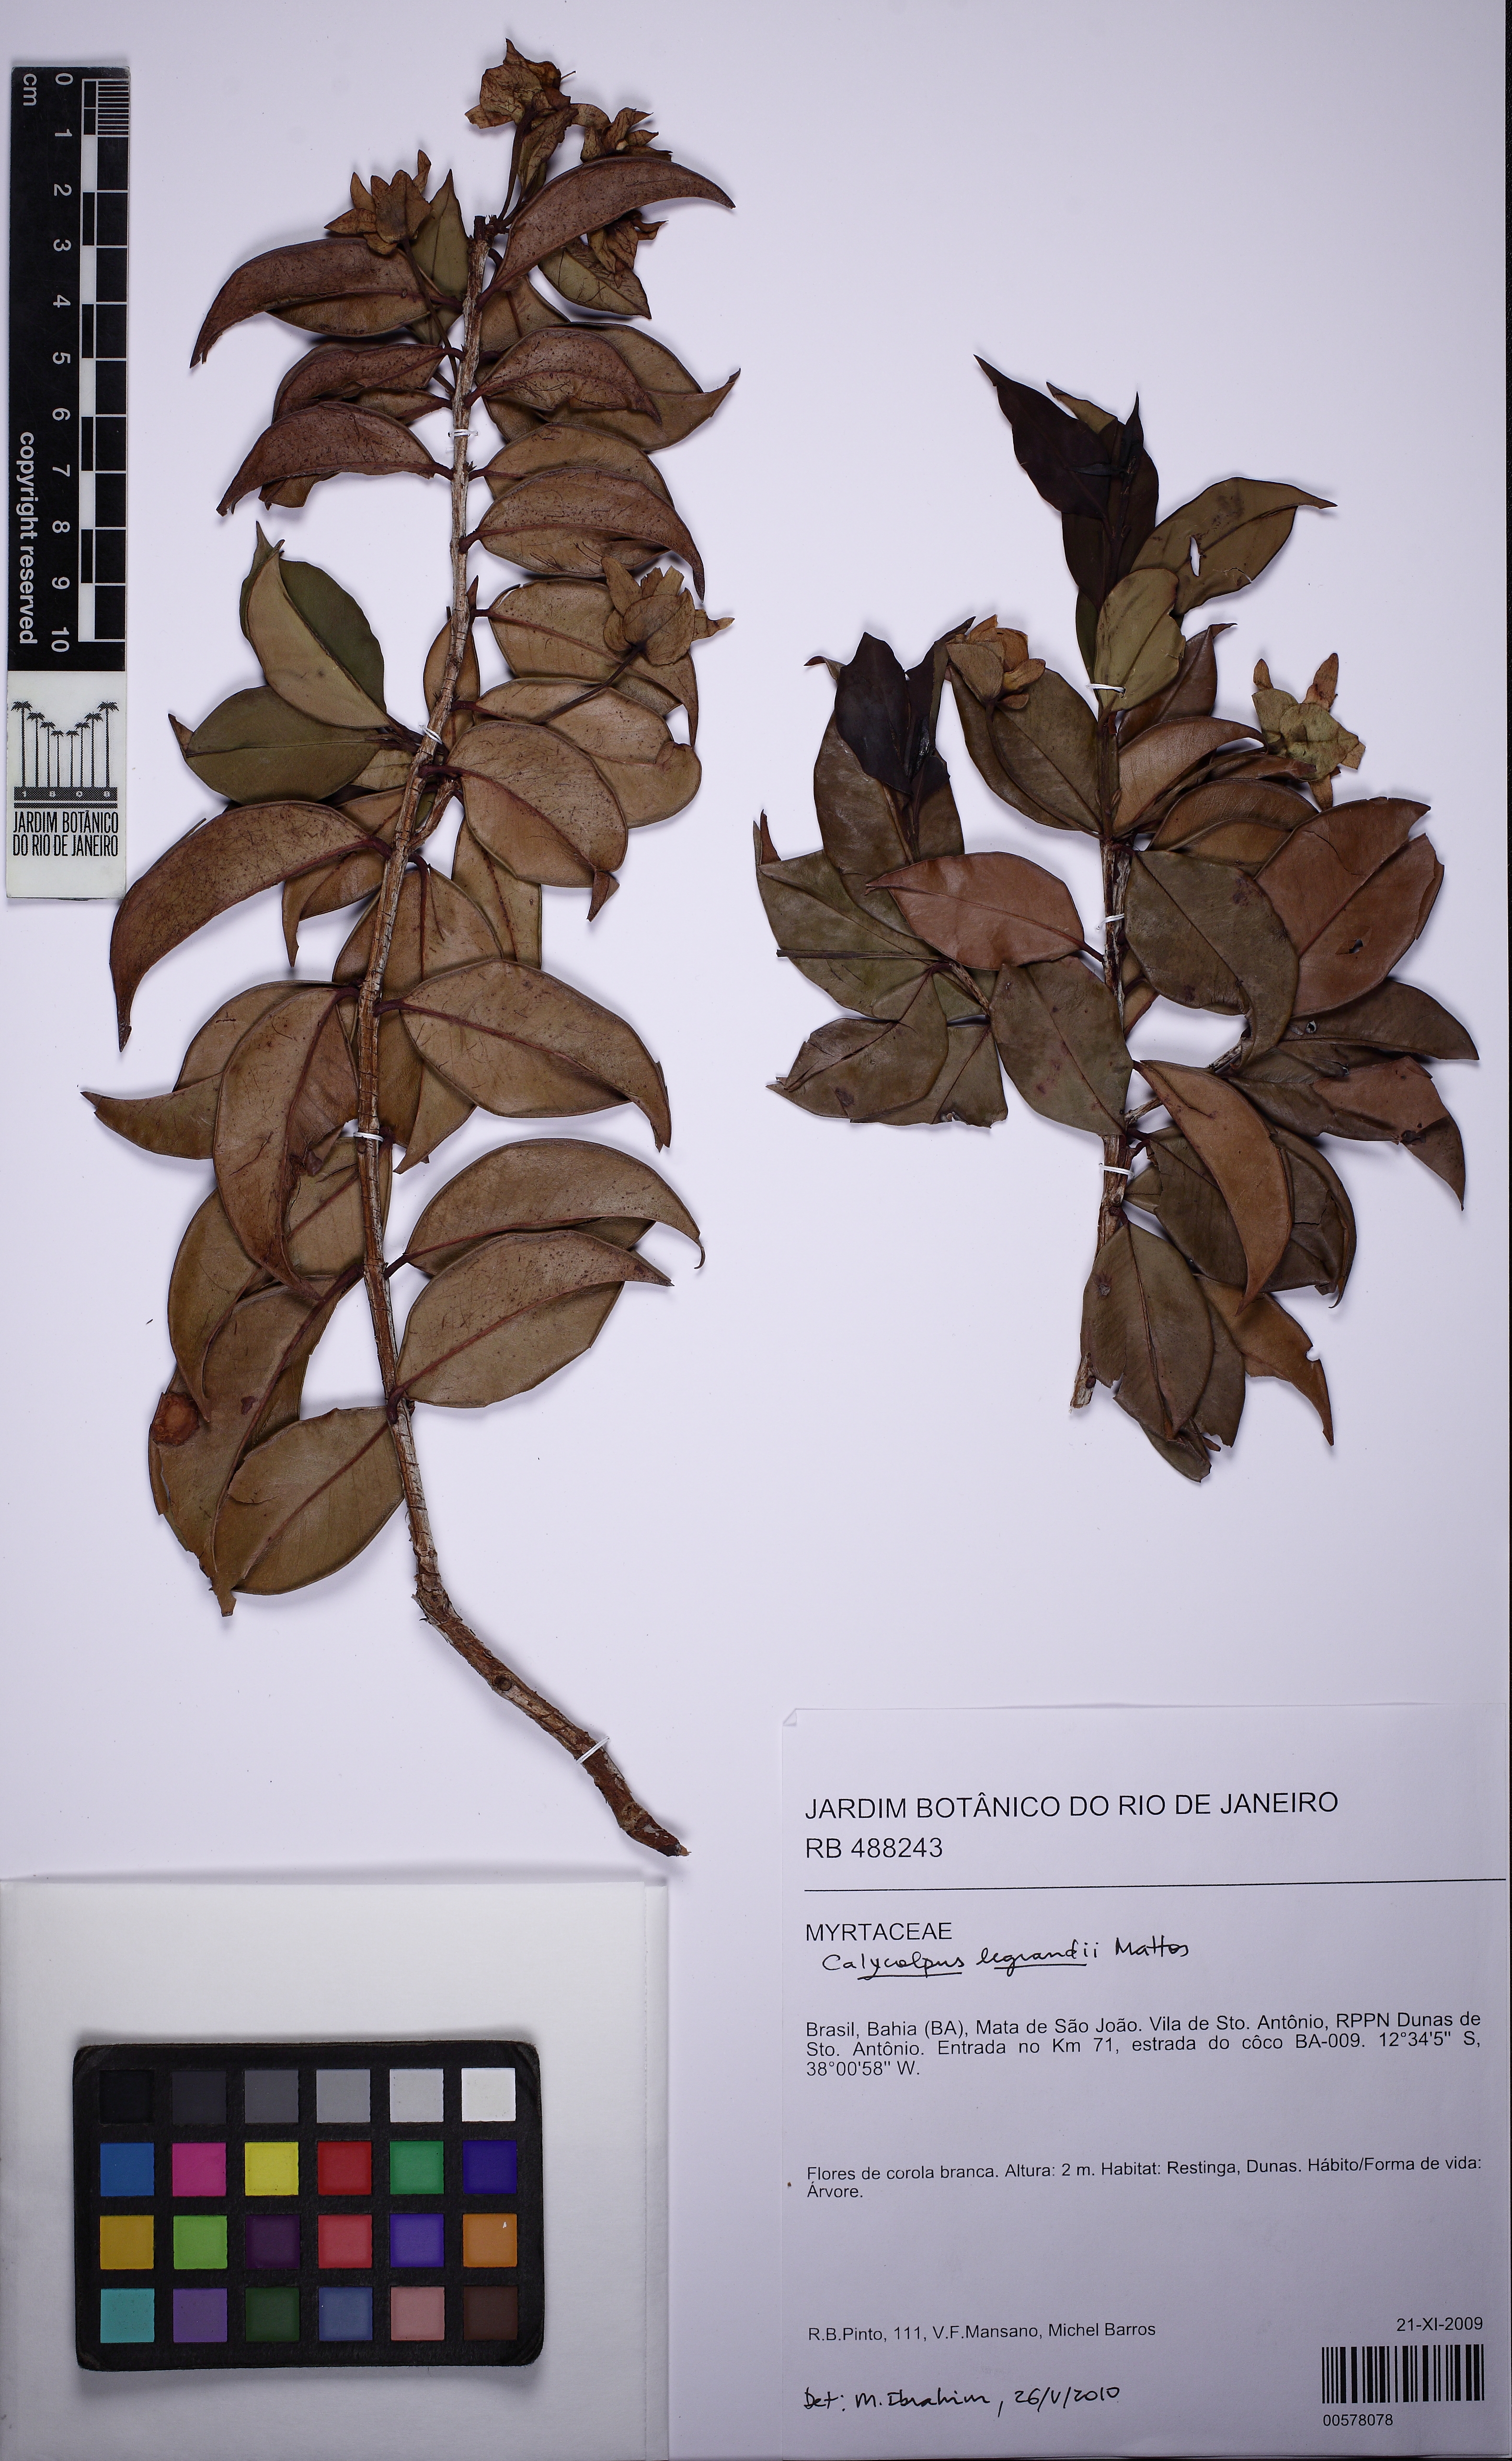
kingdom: Plantae
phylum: Tracheophyta
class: Magnoliopsida
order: Myrtales
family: Myrtaceae
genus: Calycolpus
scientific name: Calycolpus legrandii
